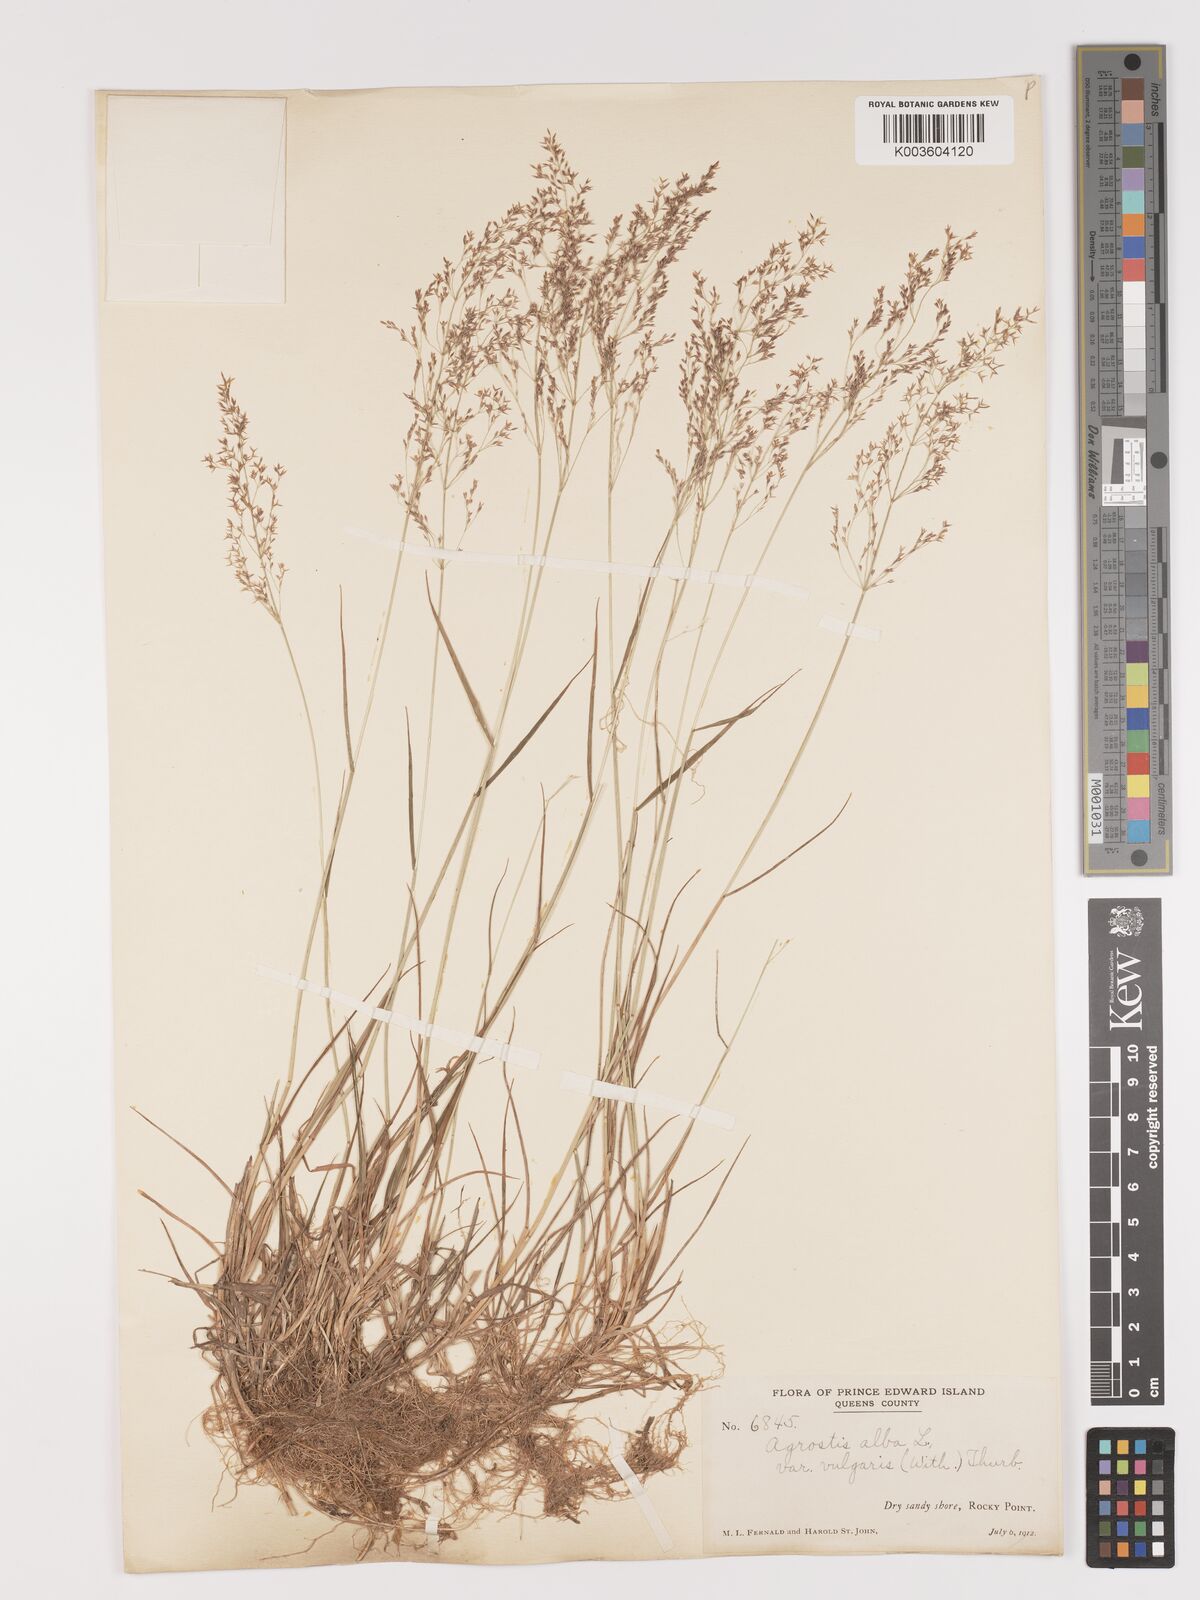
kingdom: Plantae
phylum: Tracheophyta
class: Liliopsida
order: Poales
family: Poaceae
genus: Agrostis
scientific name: Agrostis capillaris
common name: Colonial bentgrass
